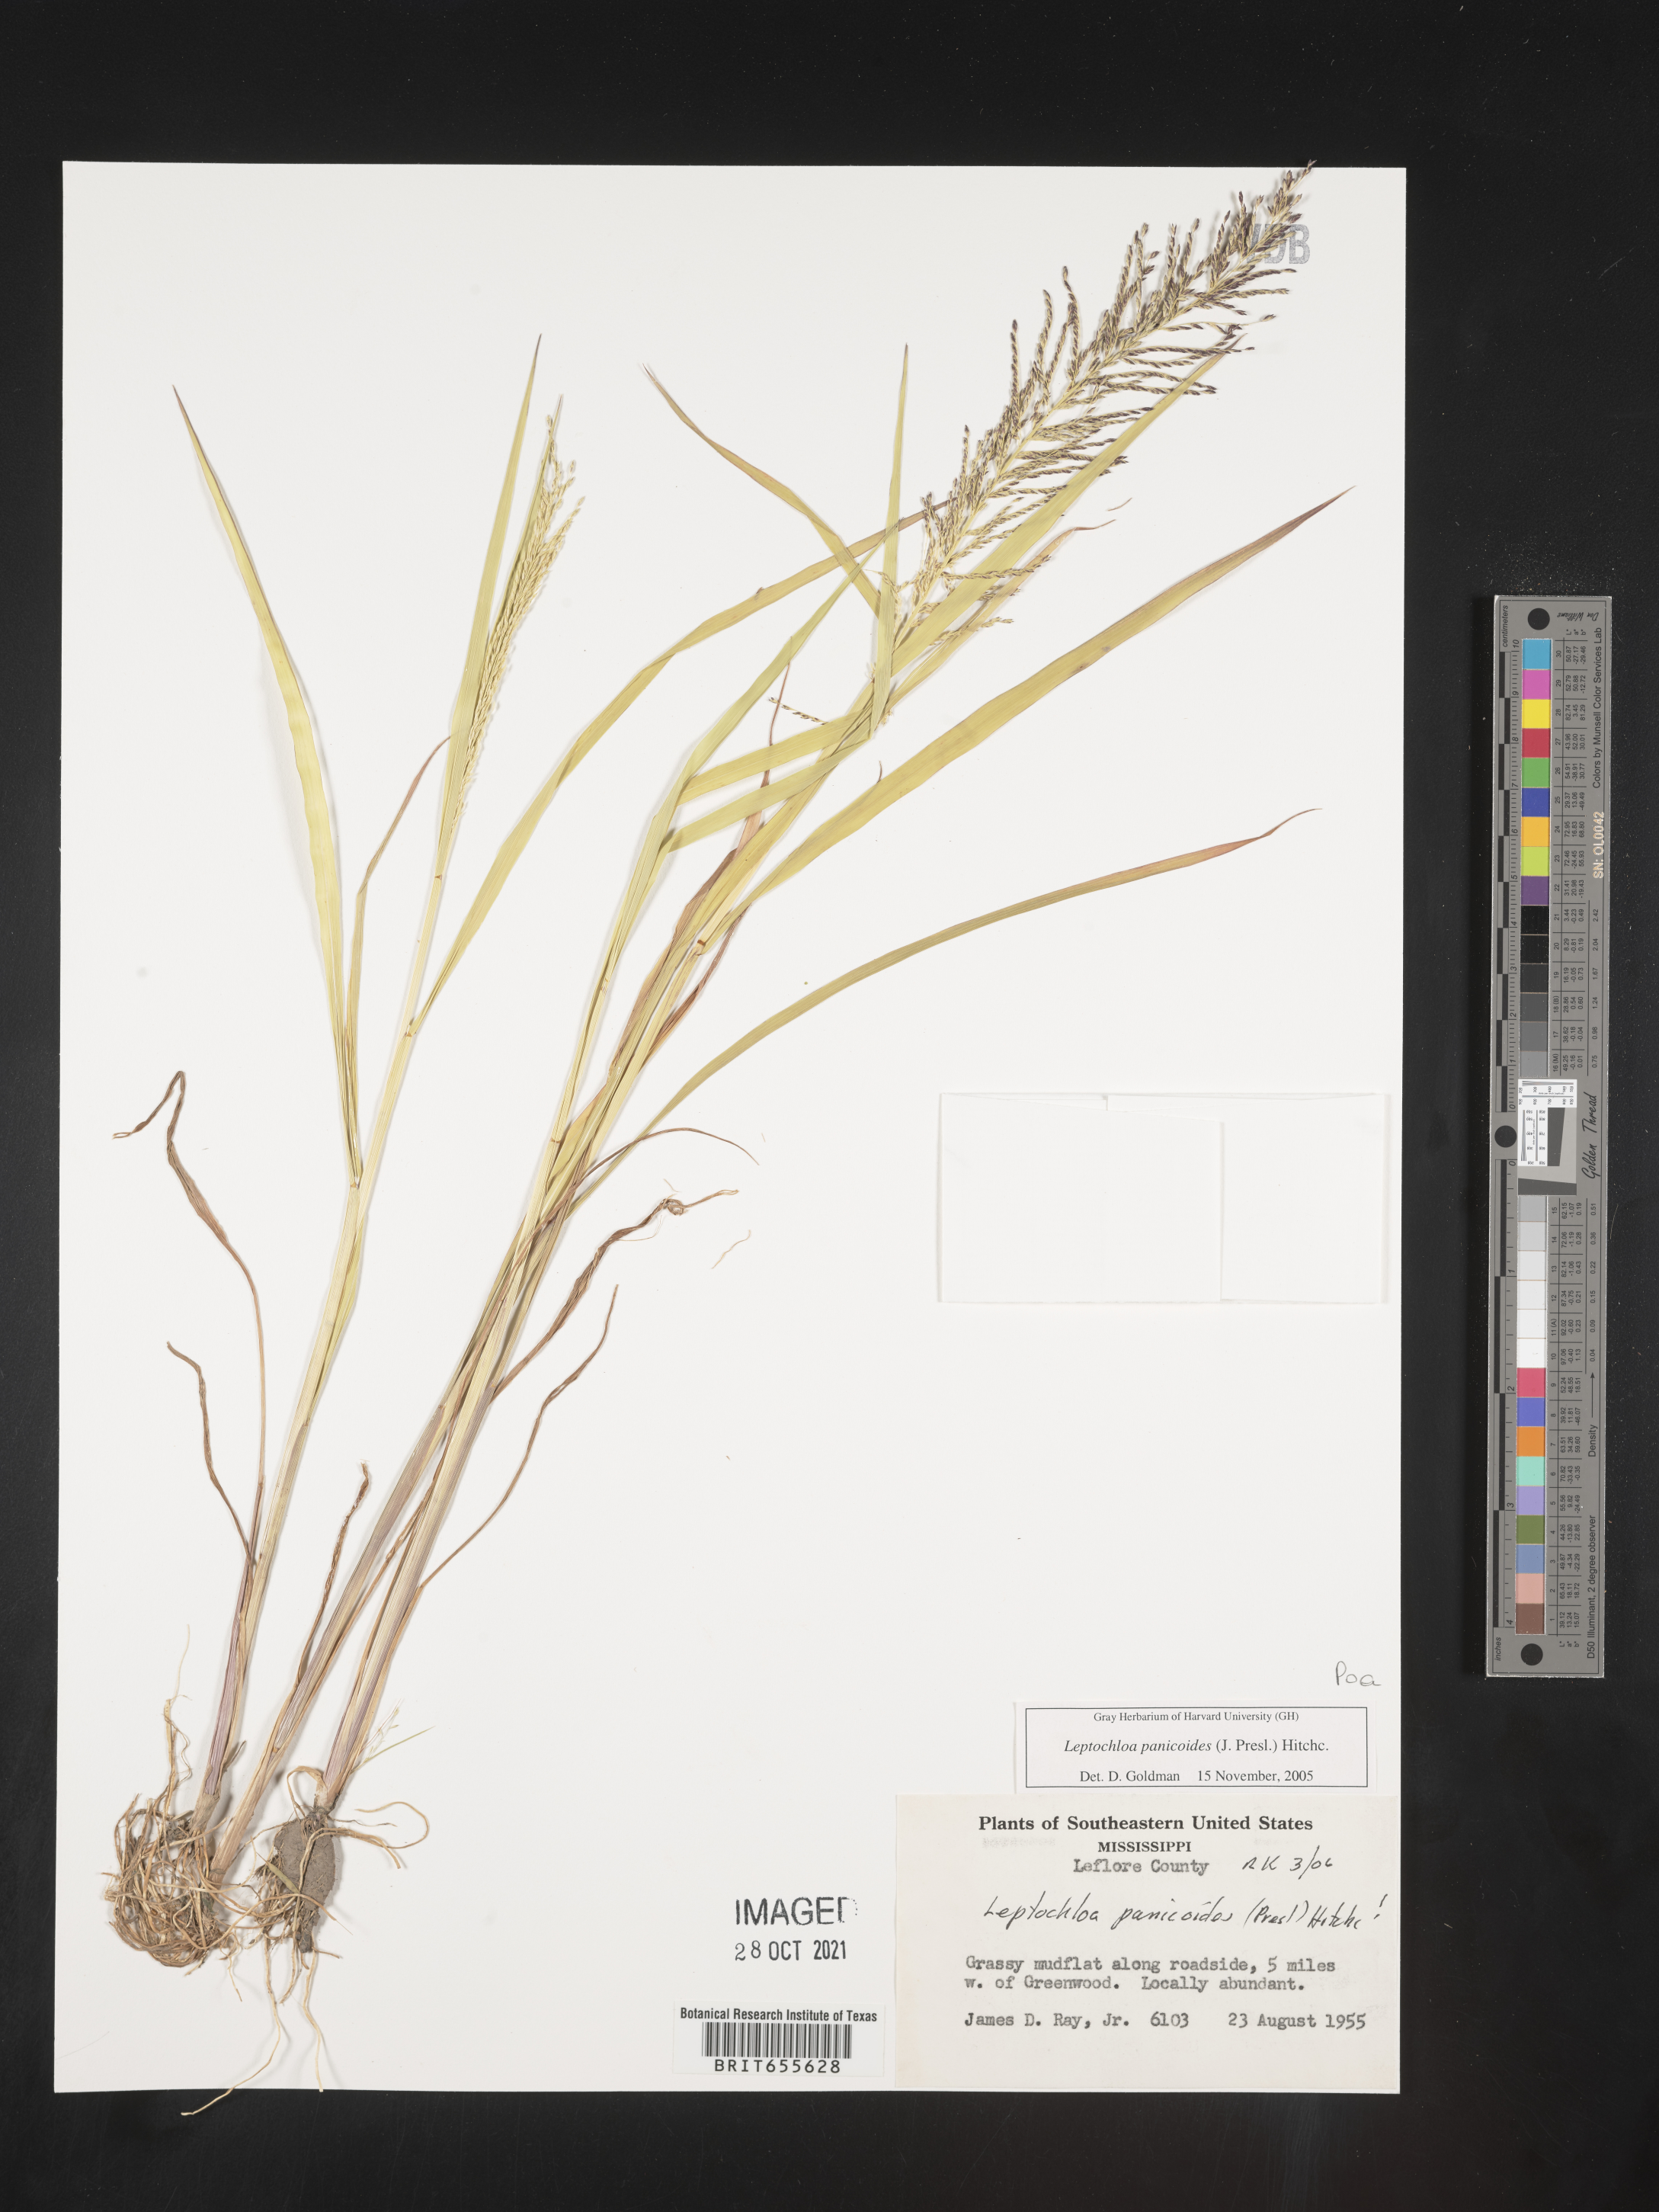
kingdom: Plantae
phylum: Tracheophyta
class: Liliopsida
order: Poales
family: Poaceae
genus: Leptochloa
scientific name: Leptochloa
